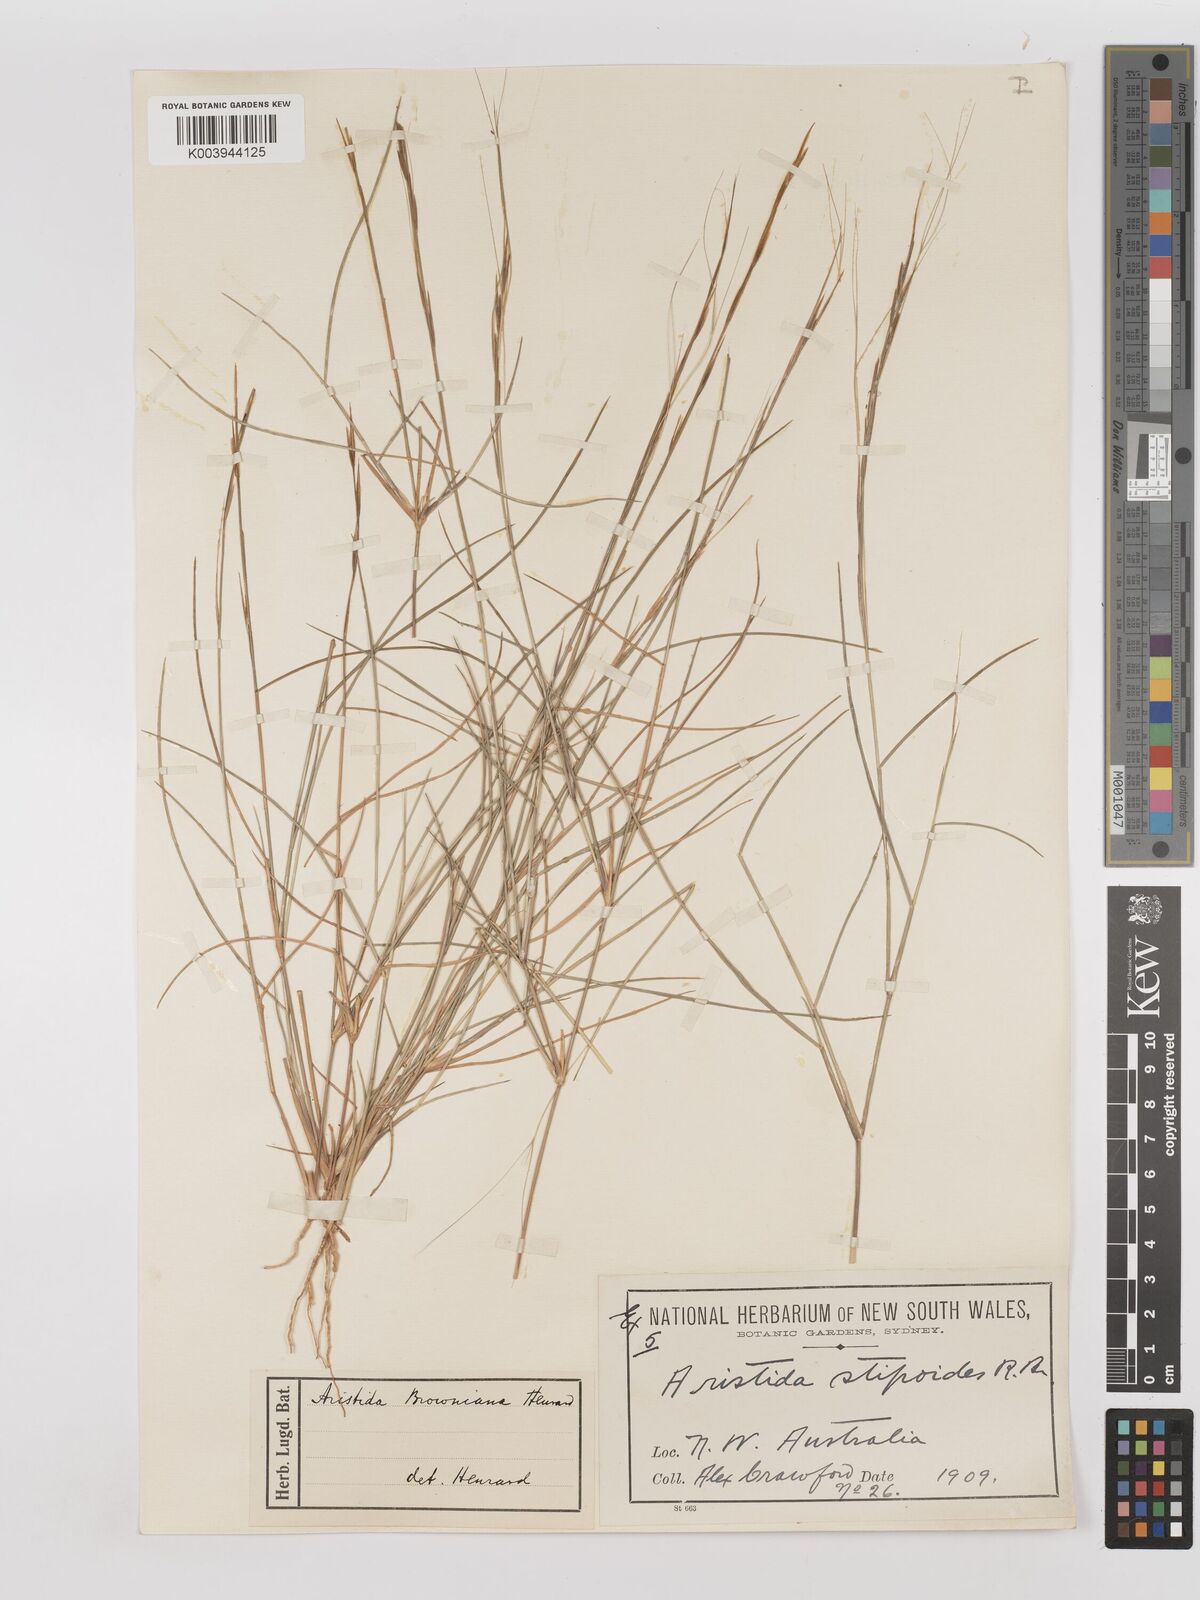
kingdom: Plantae
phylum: Tracheophyta
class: Liliopsida
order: Poales
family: Poaceae
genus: Aristida
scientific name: Aristida holathera
